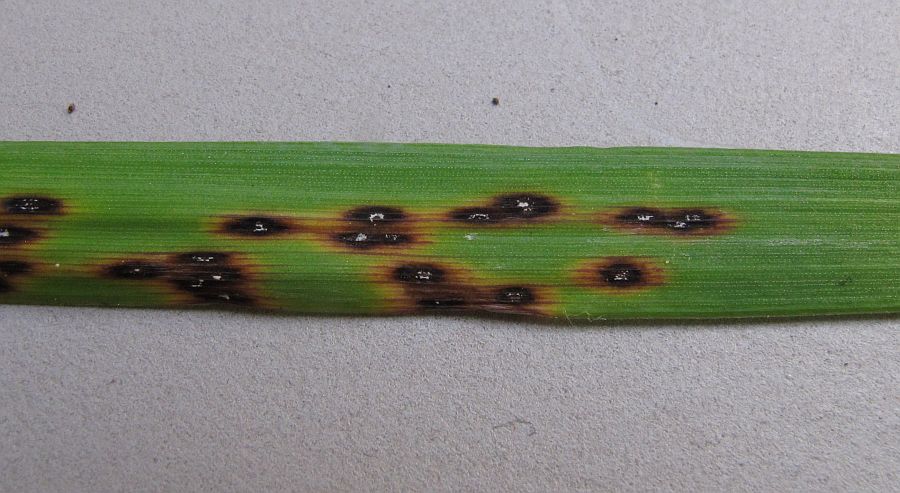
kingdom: Fungi
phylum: Ascomycota
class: Leotiomycetes
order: Helotiales
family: Ploettnerulaceae
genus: Mastigosporium
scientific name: Mastigosporium album
